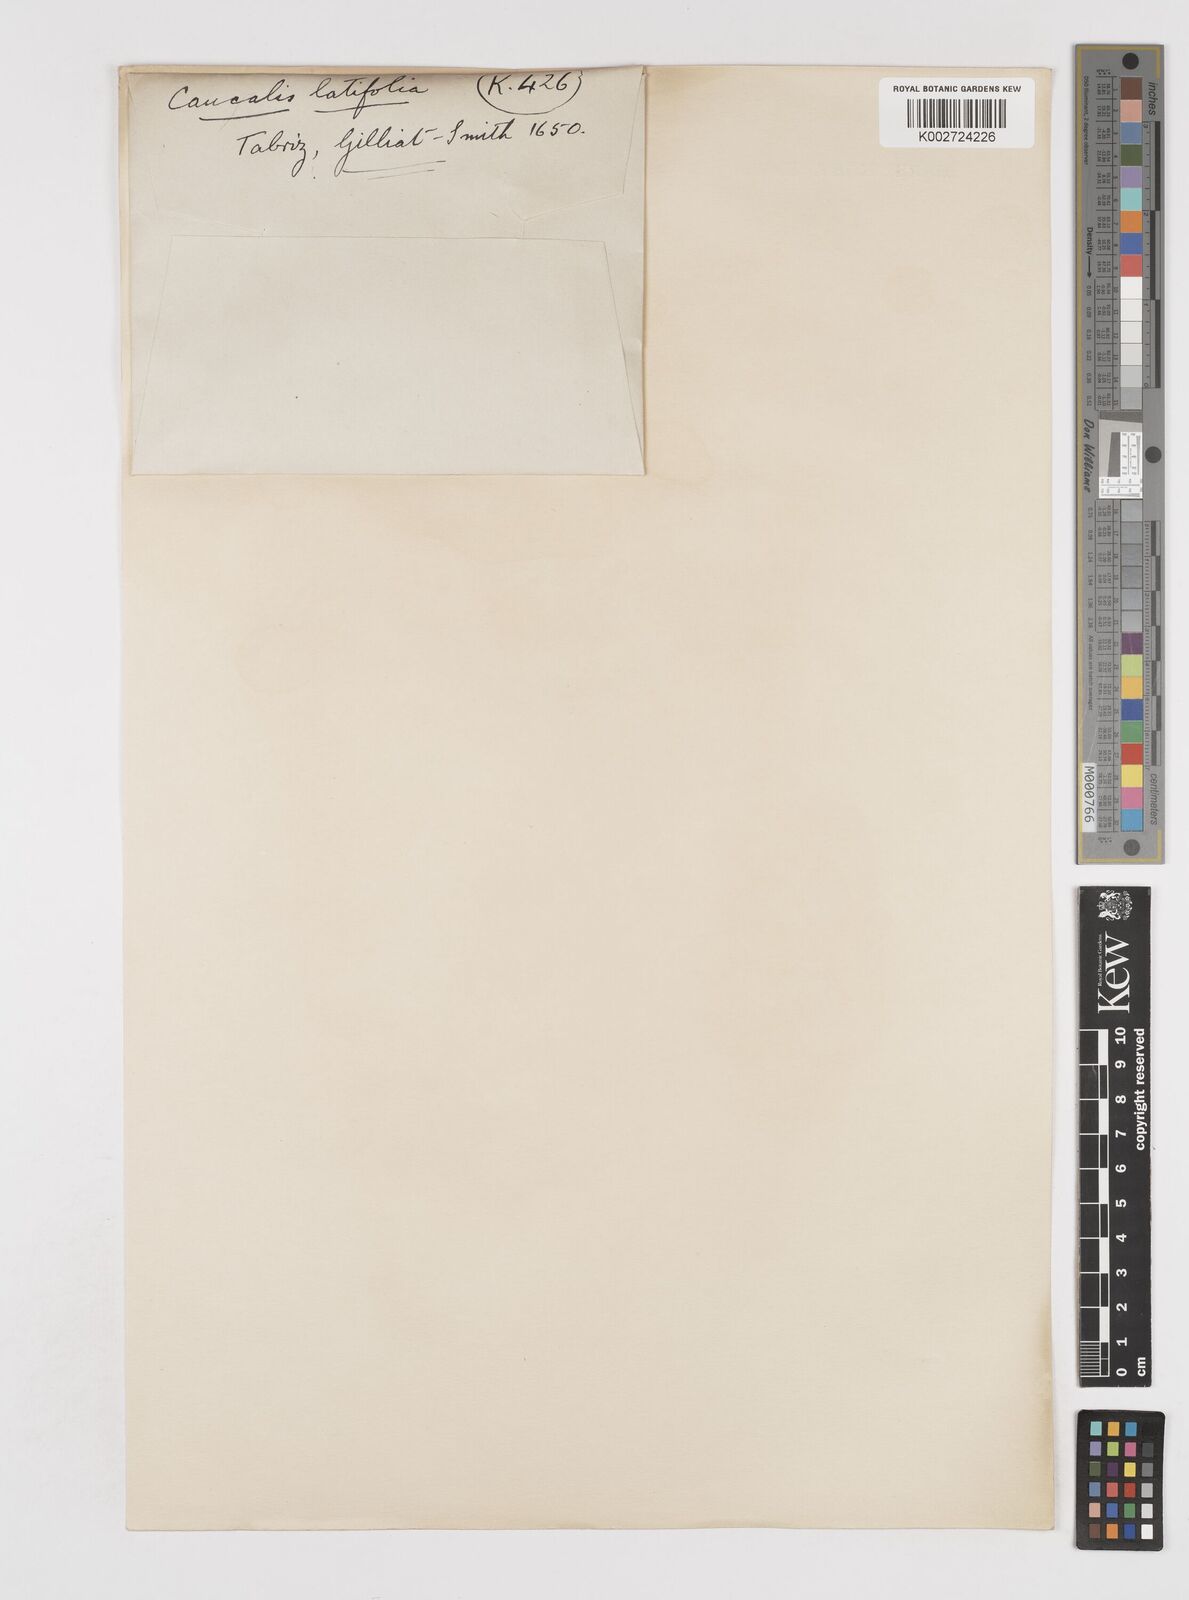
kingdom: Plantae
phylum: Tracheophyta
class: Magnoliopsida
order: Apiales
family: Apiaceae
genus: Turgenia
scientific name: Turgenia latifolia
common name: Greater bur-parsley
